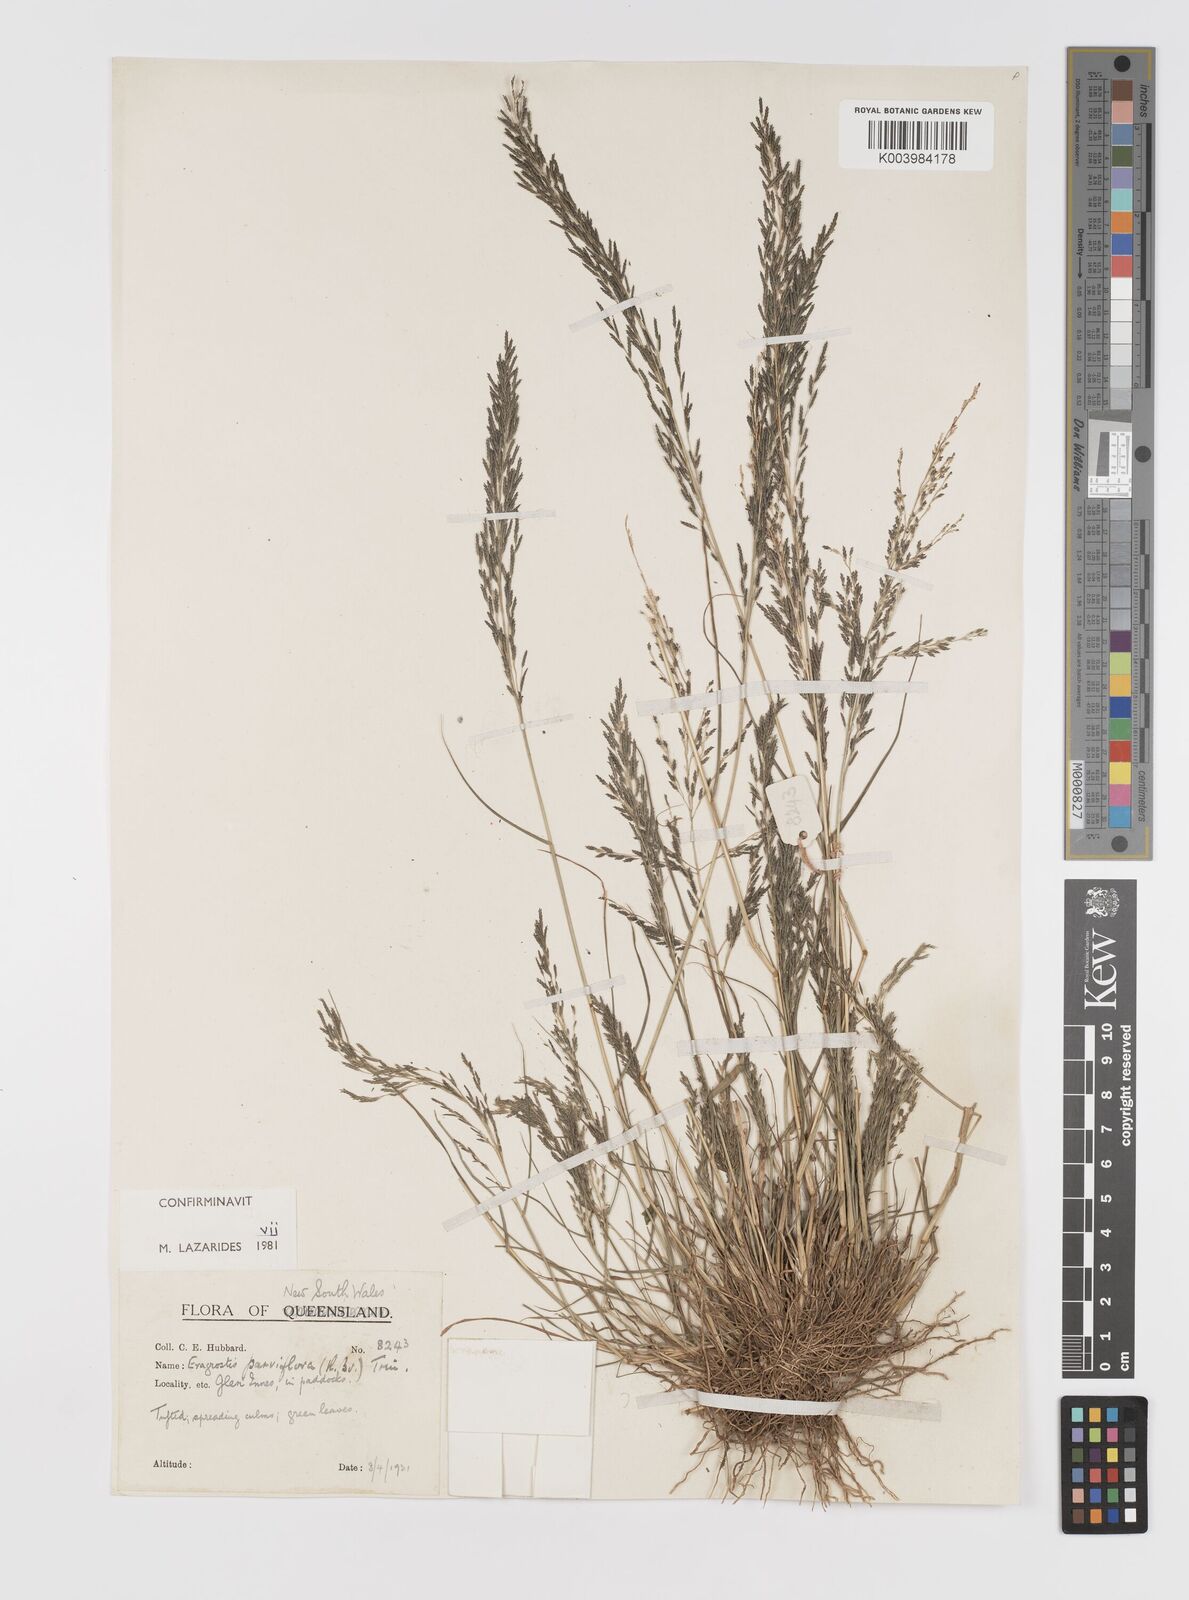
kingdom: Plantae
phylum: Tracheophyta
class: Liliopsida
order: Poales
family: Poaceae
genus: Eragrostis
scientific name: Eragrostis parviflora
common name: Weeping love-grass
